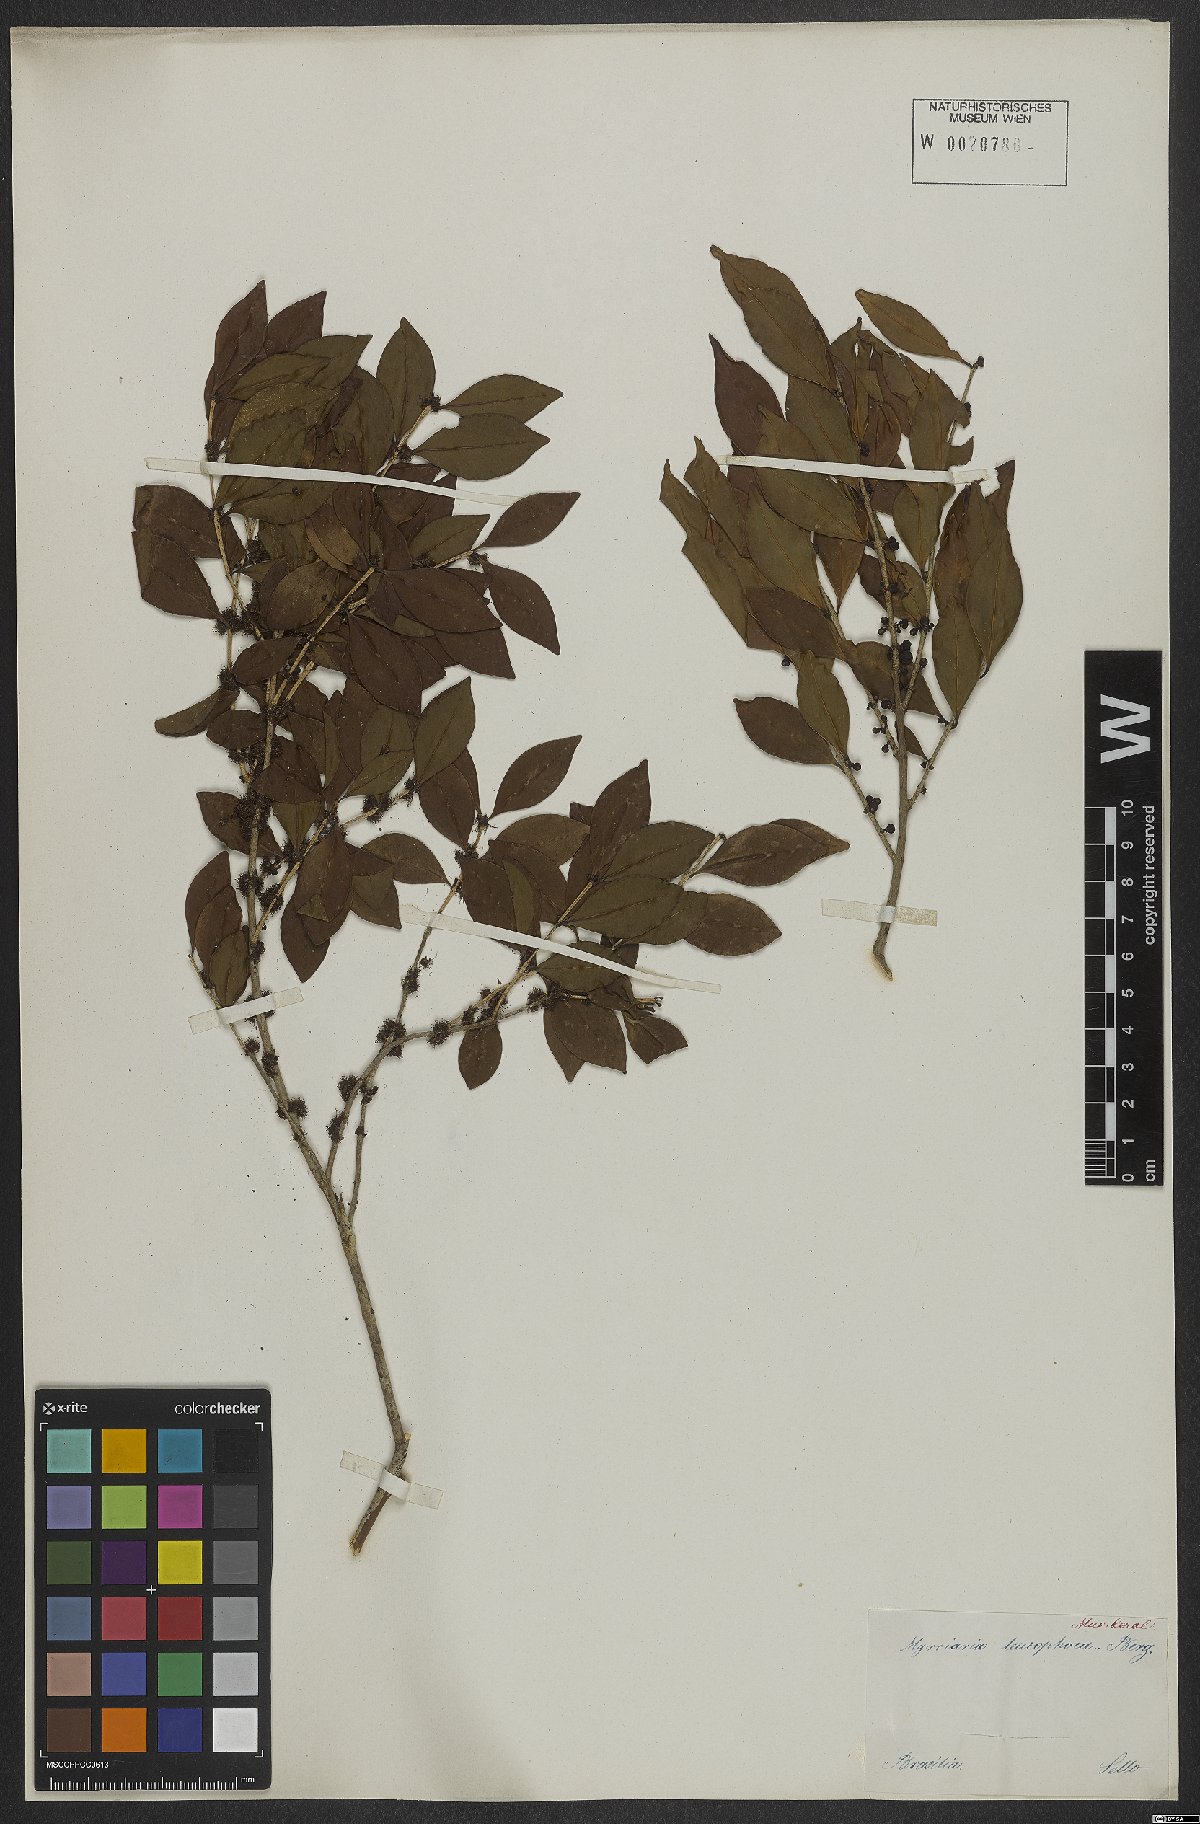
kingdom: Plantae
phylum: Tracheophyta
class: Magnoliopsida
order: Myrtales
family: Myrtaceae
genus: Myrciaria
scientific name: Myrciaria ciliolata
